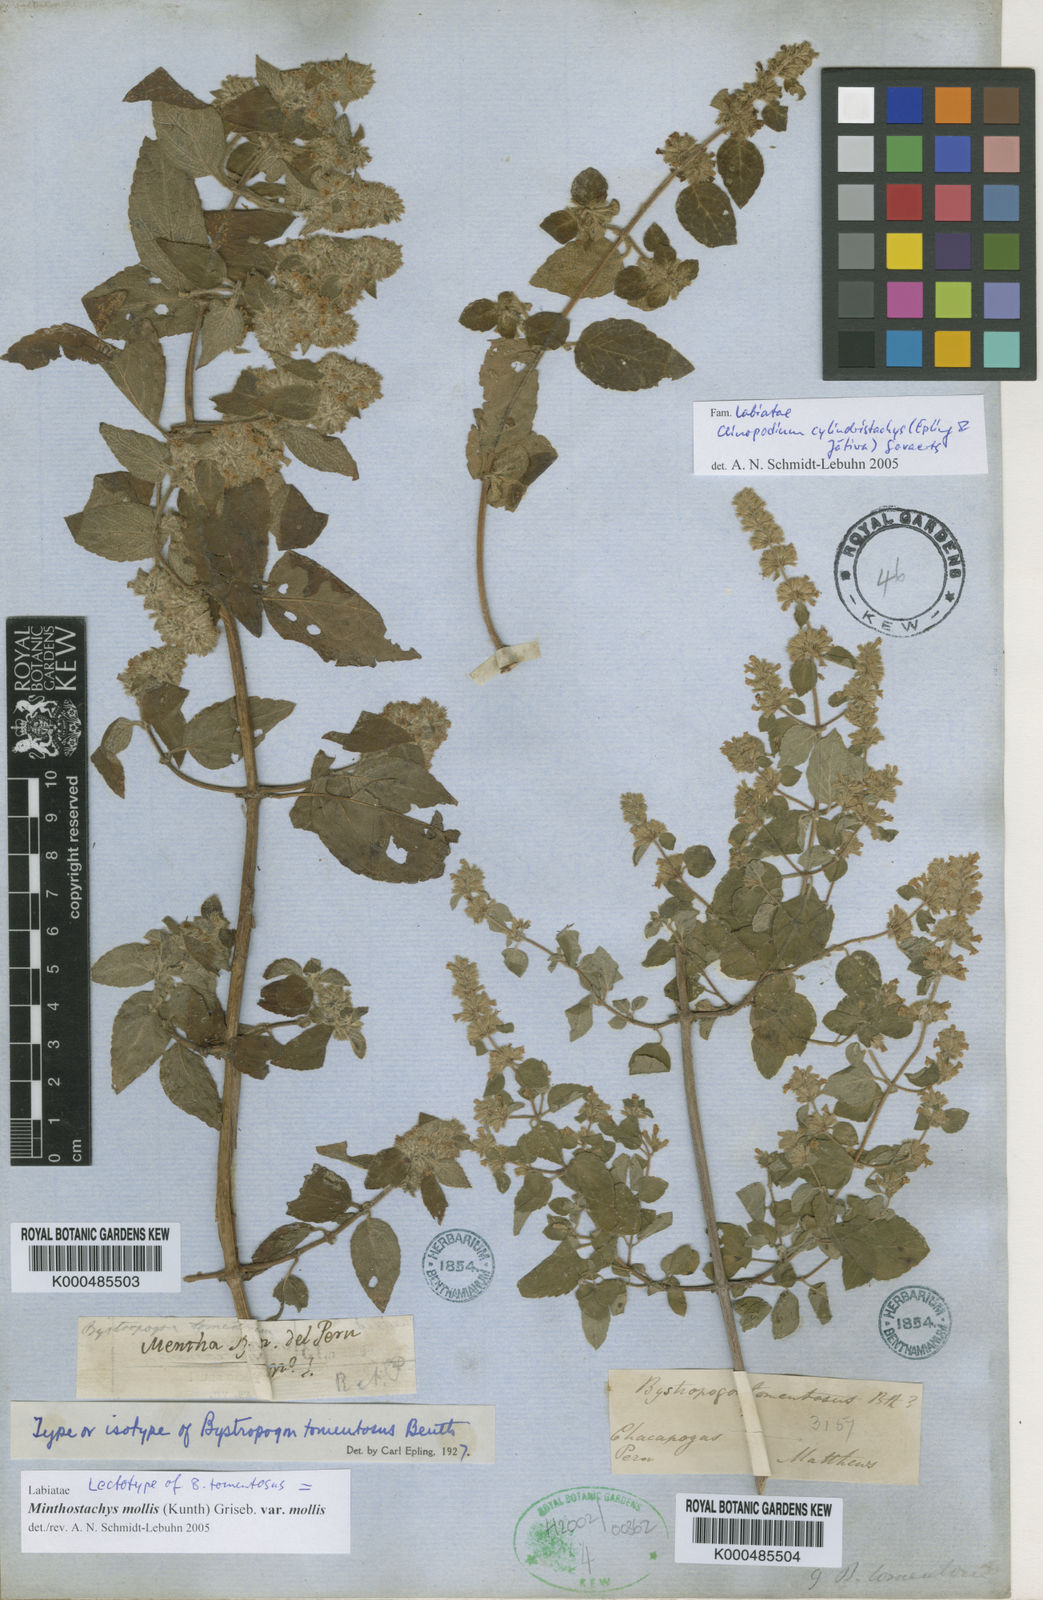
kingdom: Plantae
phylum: Tracheophyta
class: Magnoliopsida
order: Lamiales
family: Lamiaceae
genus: Minthostachys
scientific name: Minthostachys mollis
